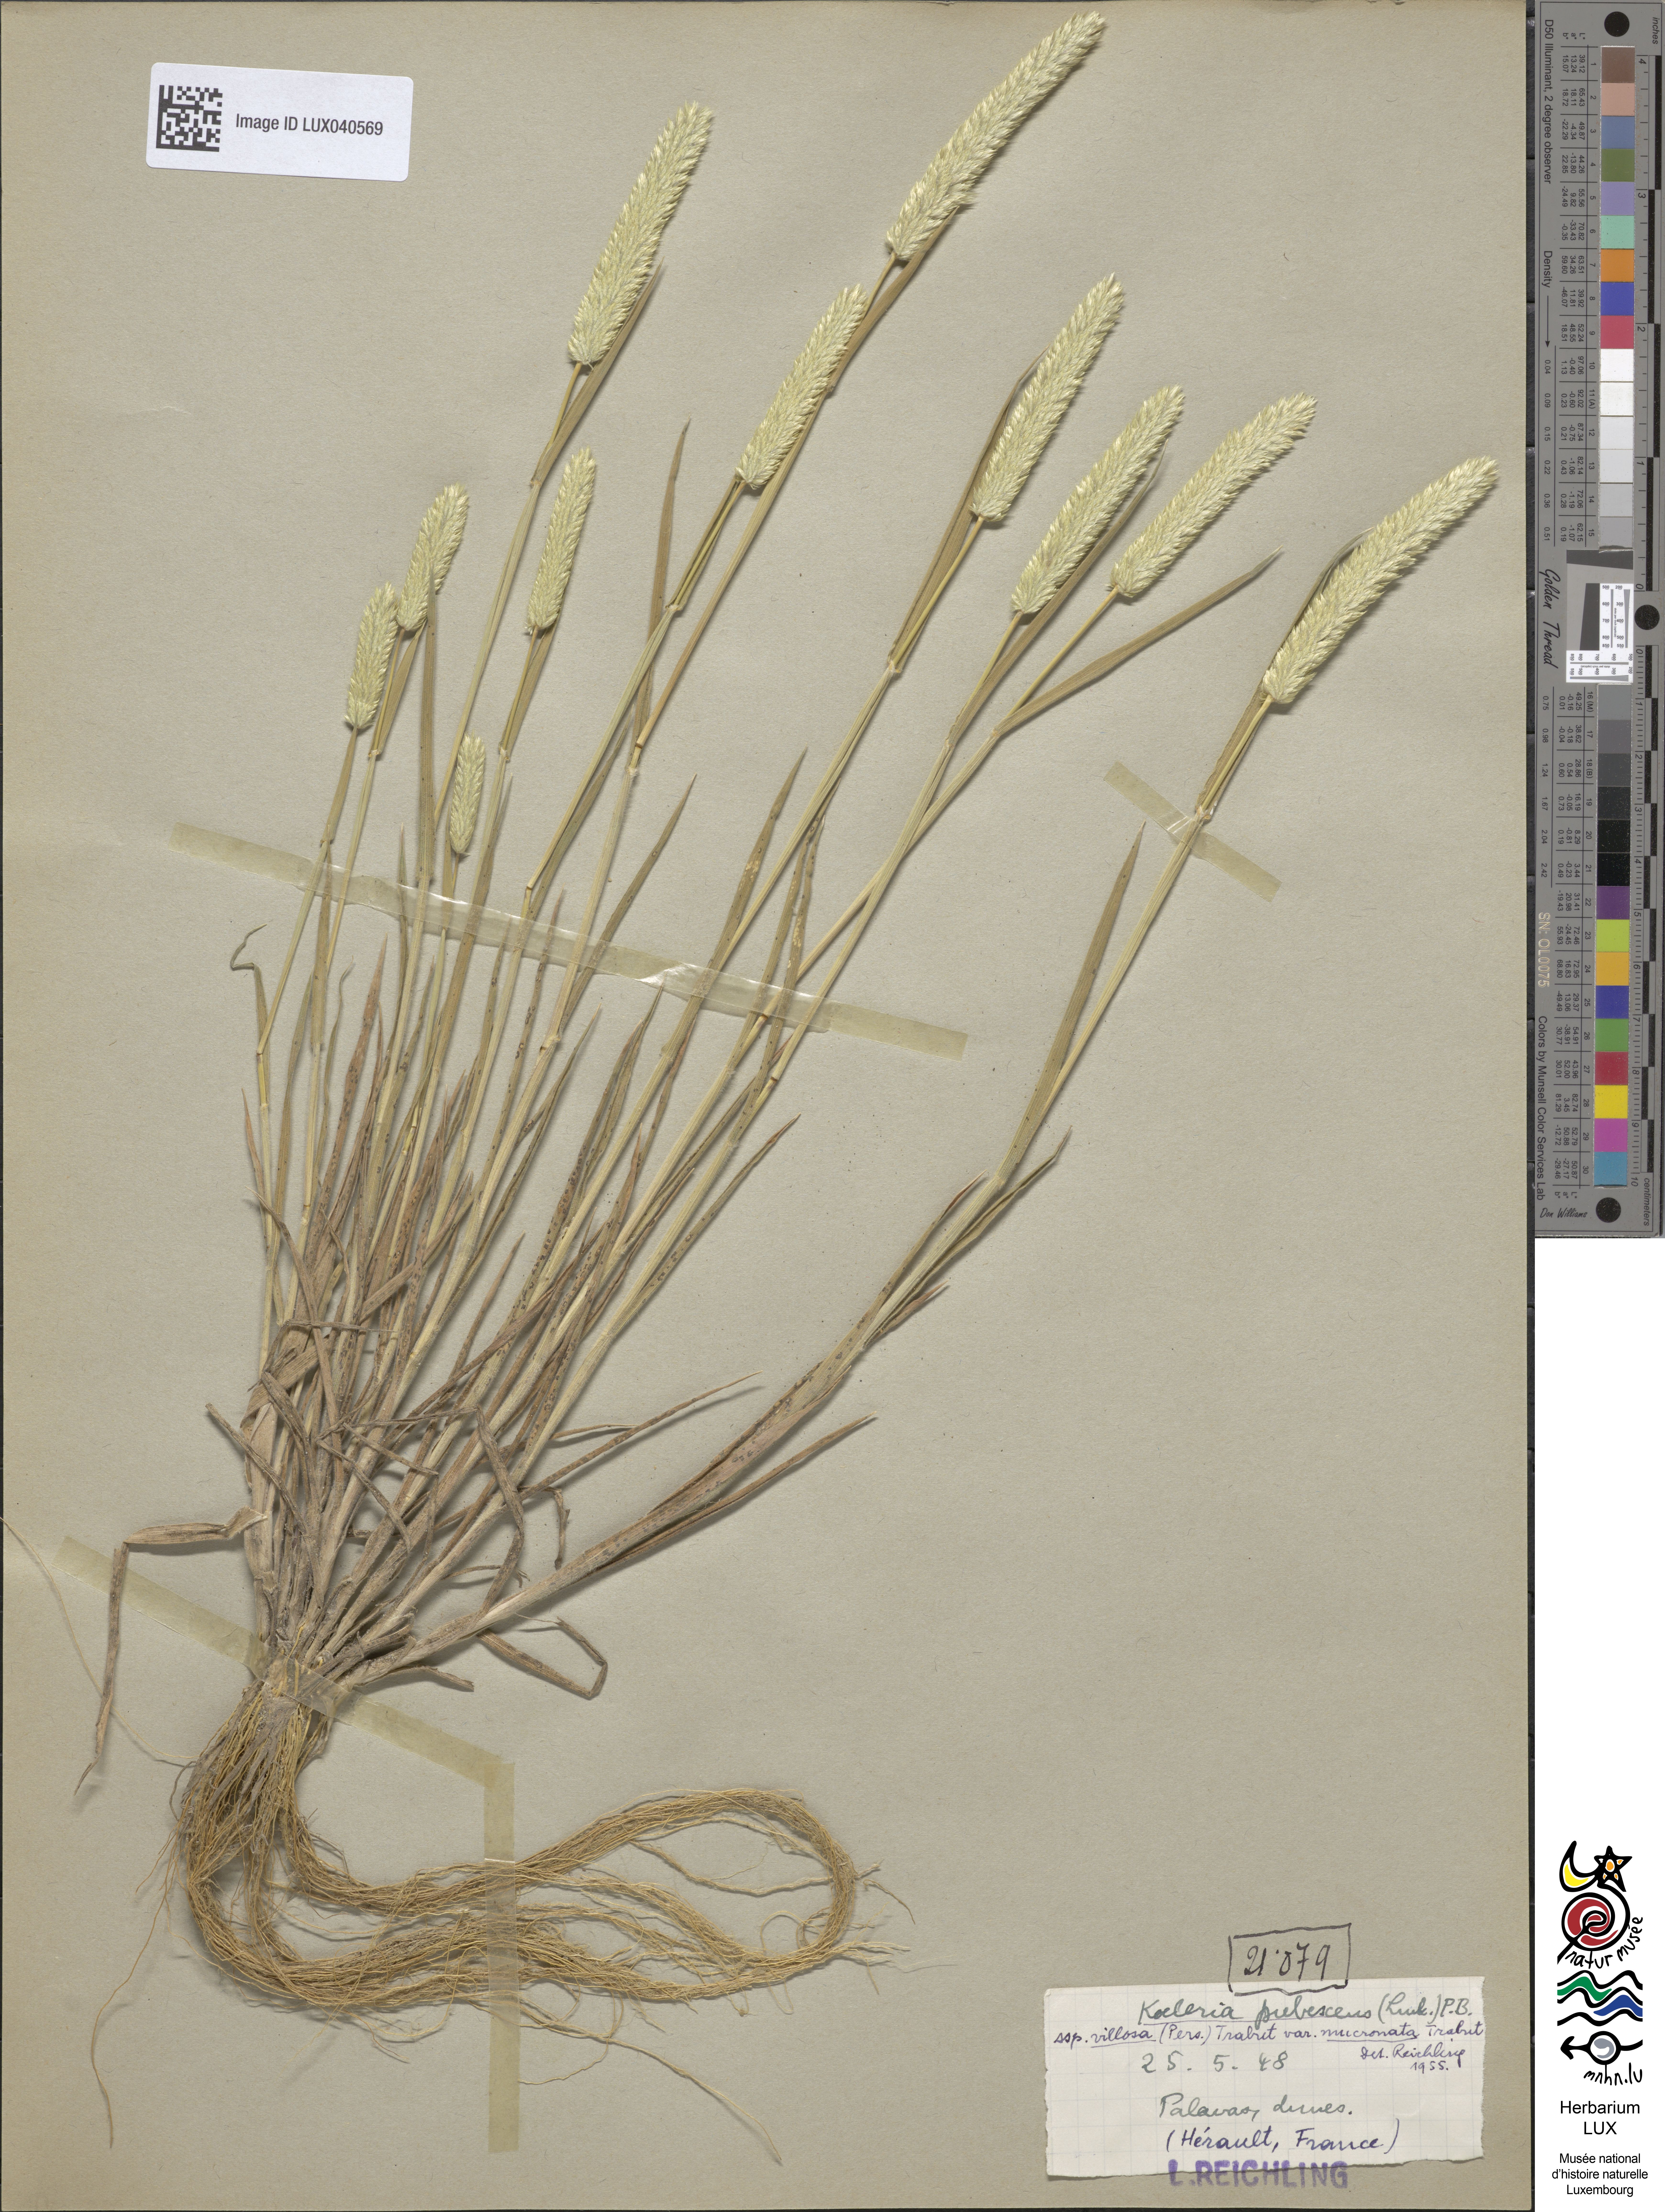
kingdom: Plantae
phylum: Tracheophyta
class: Liliopsida
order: Poales
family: Poaceae
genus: Rostraria
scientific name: Rostraria litorea
